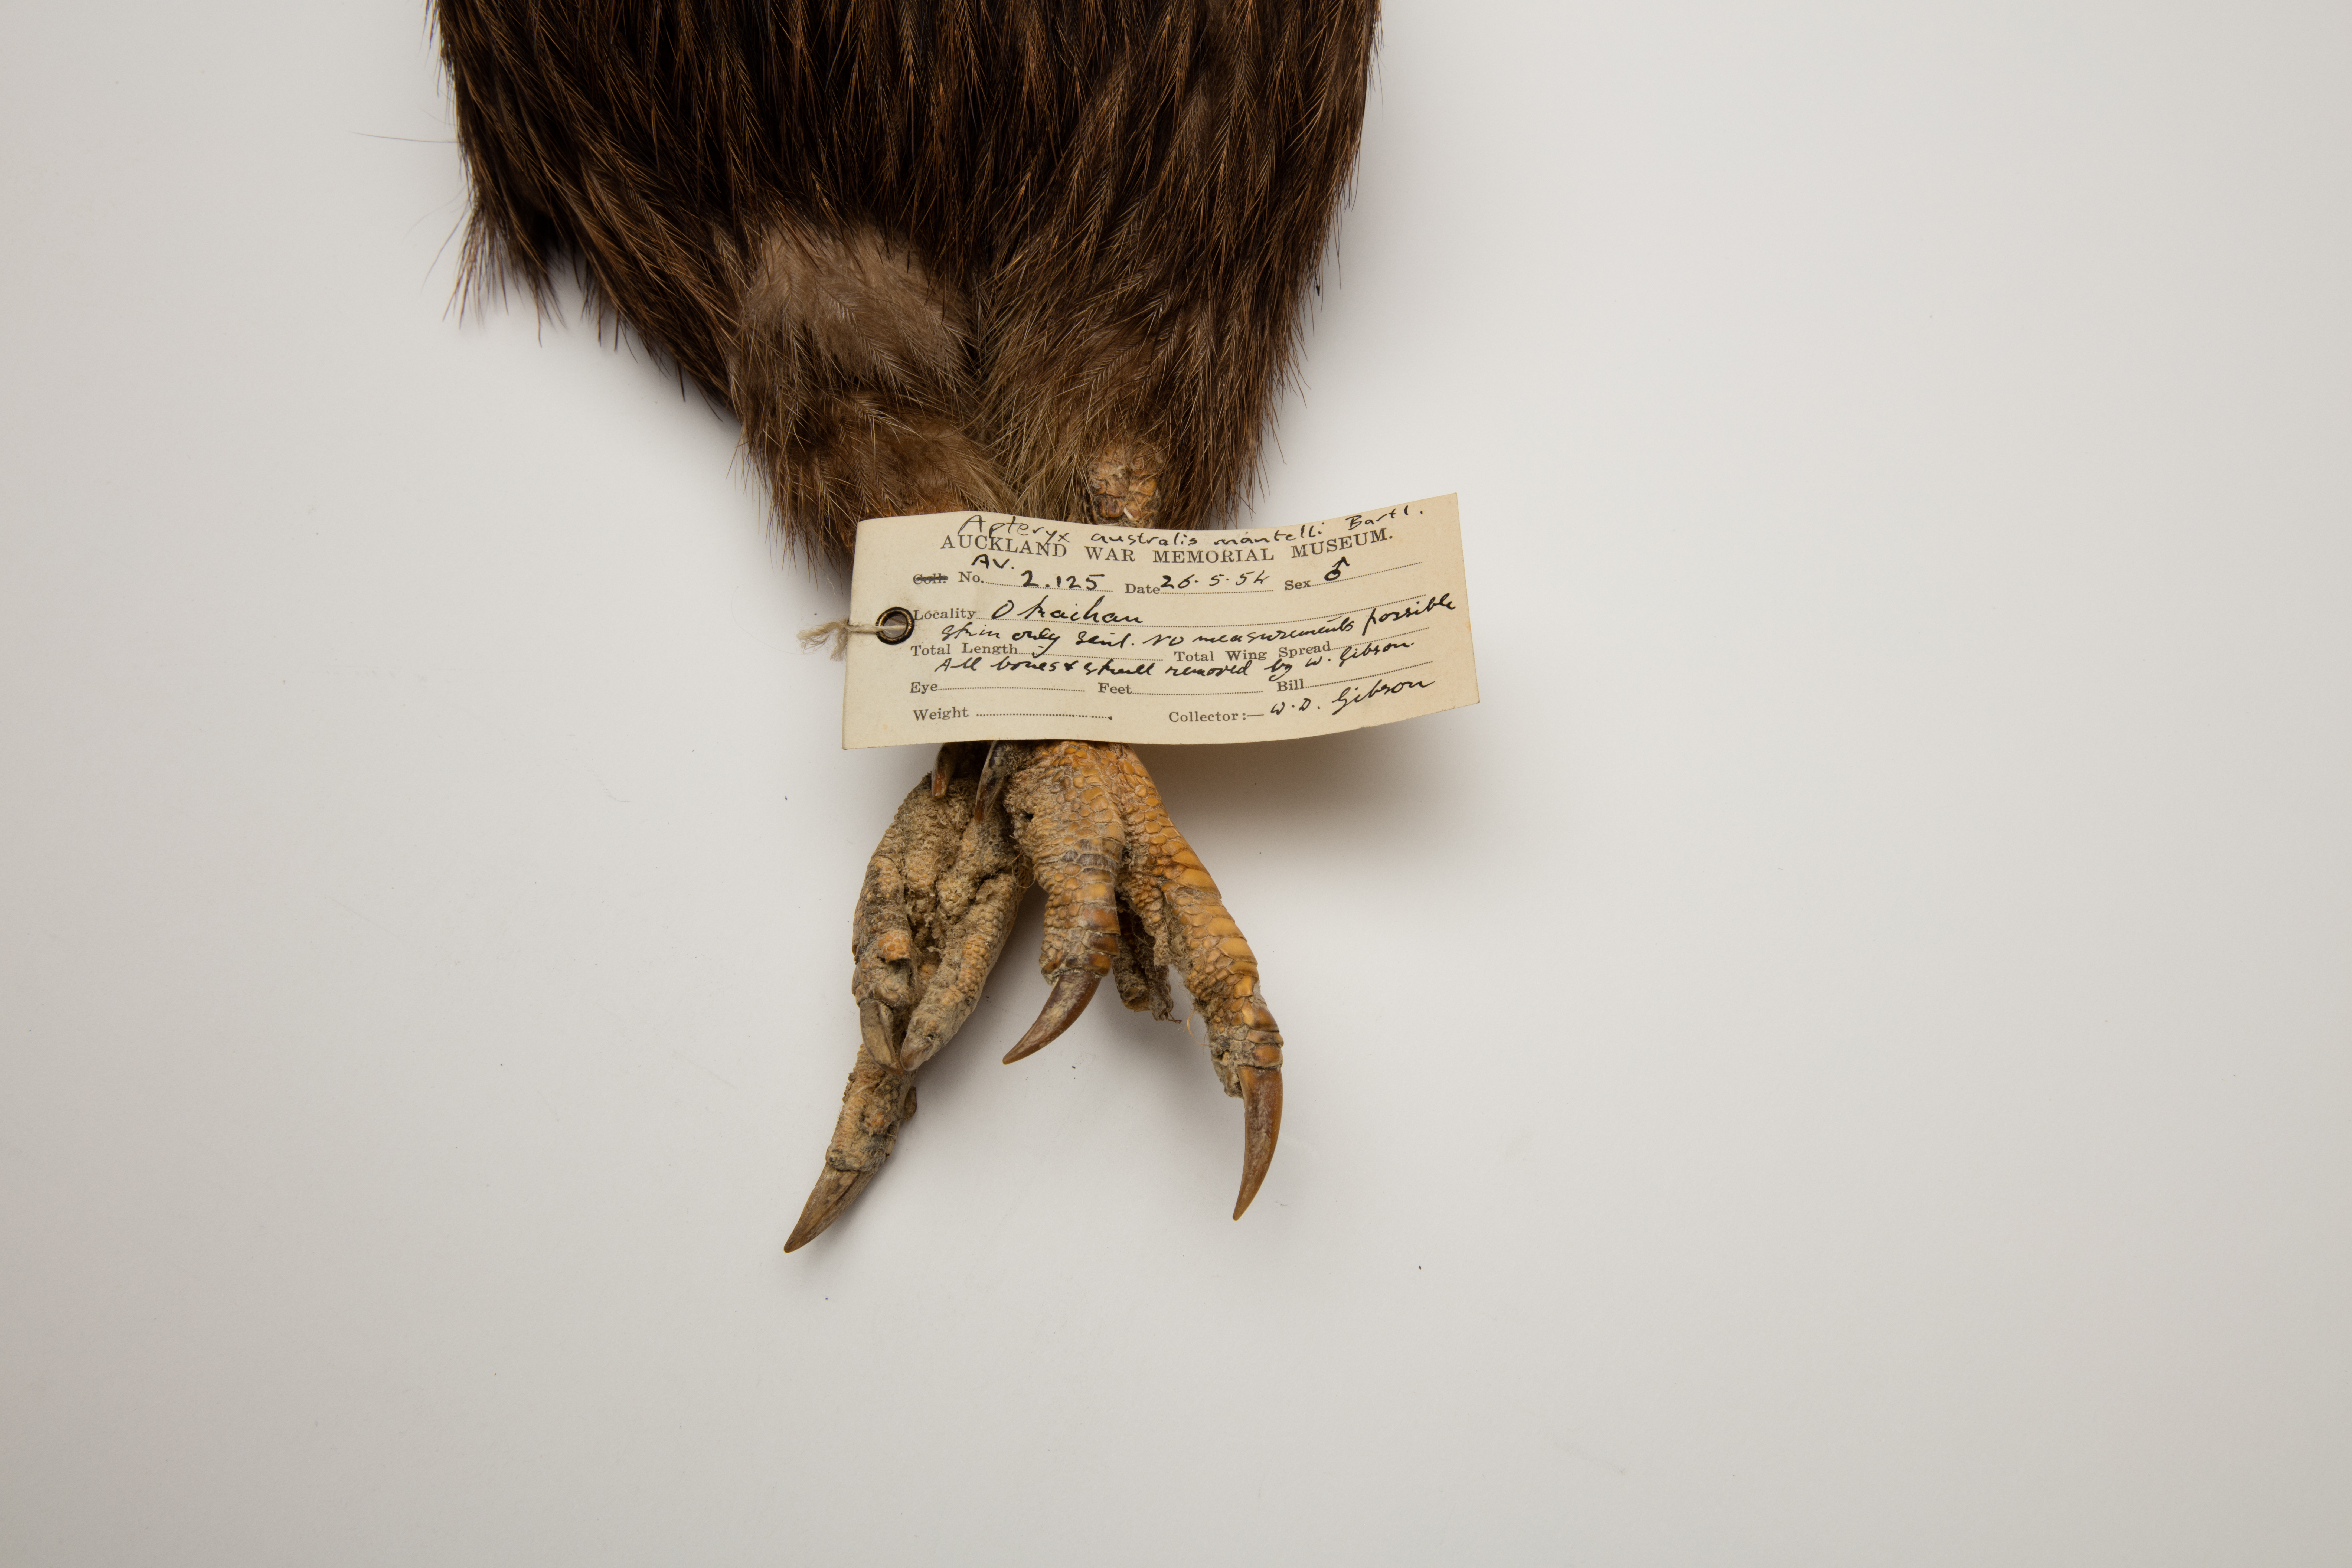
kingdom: Animalia
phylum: Chordata
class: Aves
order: Apterygiformes
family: Apterygidae
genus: Apteryx
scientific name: Apteryx mantelli
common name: North island brown kiwi
